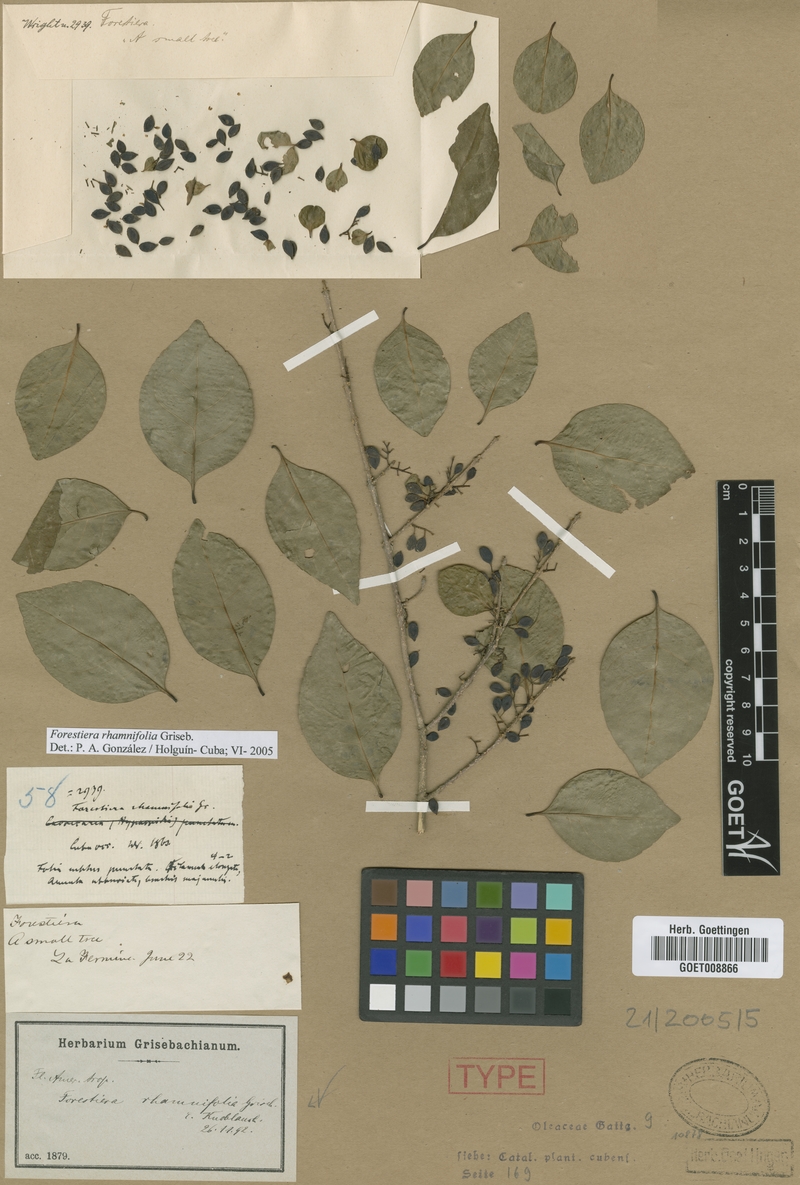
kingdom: Plantae
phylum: Tracheophyta
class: Magnoliopsida
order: Lamiales
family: Oleaceae
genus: Forestiera
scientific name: Forestiera rhamnifolia
